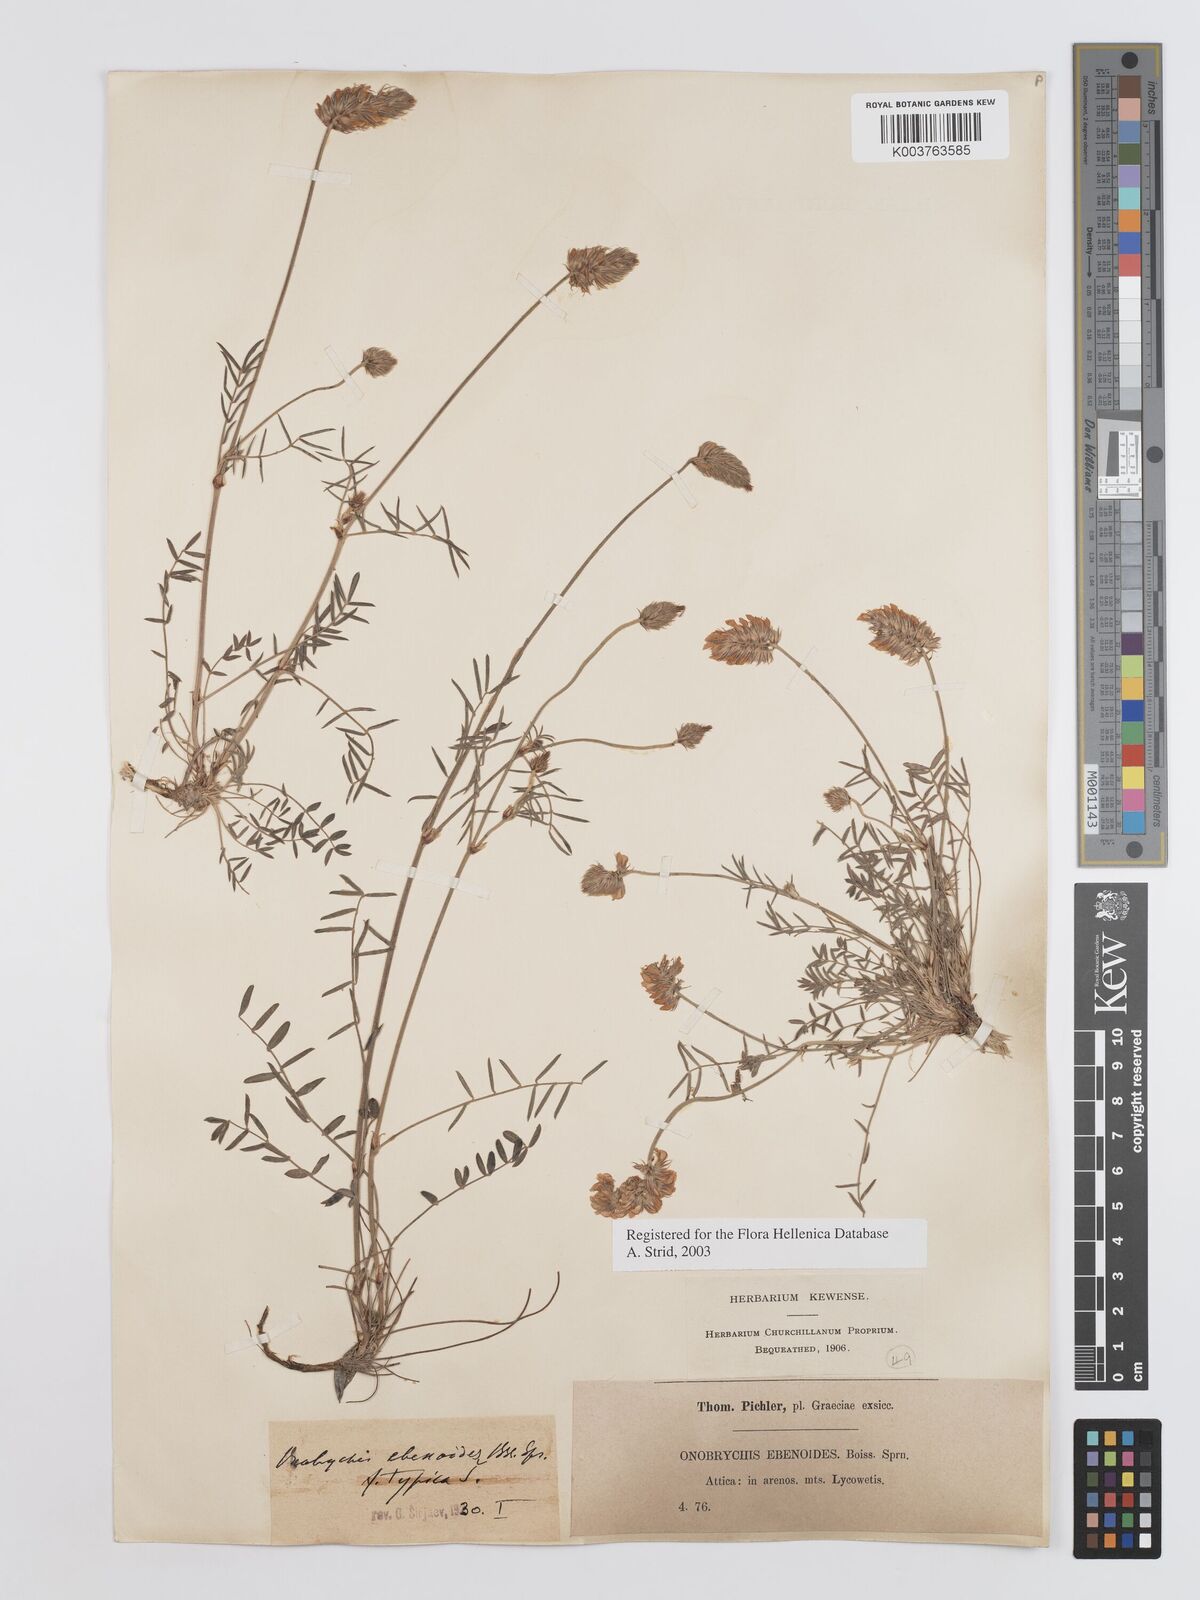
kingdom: Plantae
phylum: Tracheophyta
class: Magnoliopsida
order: Fabales
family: Fabaceae
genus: Onobrychis
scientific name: Onobrychis ebenoides
